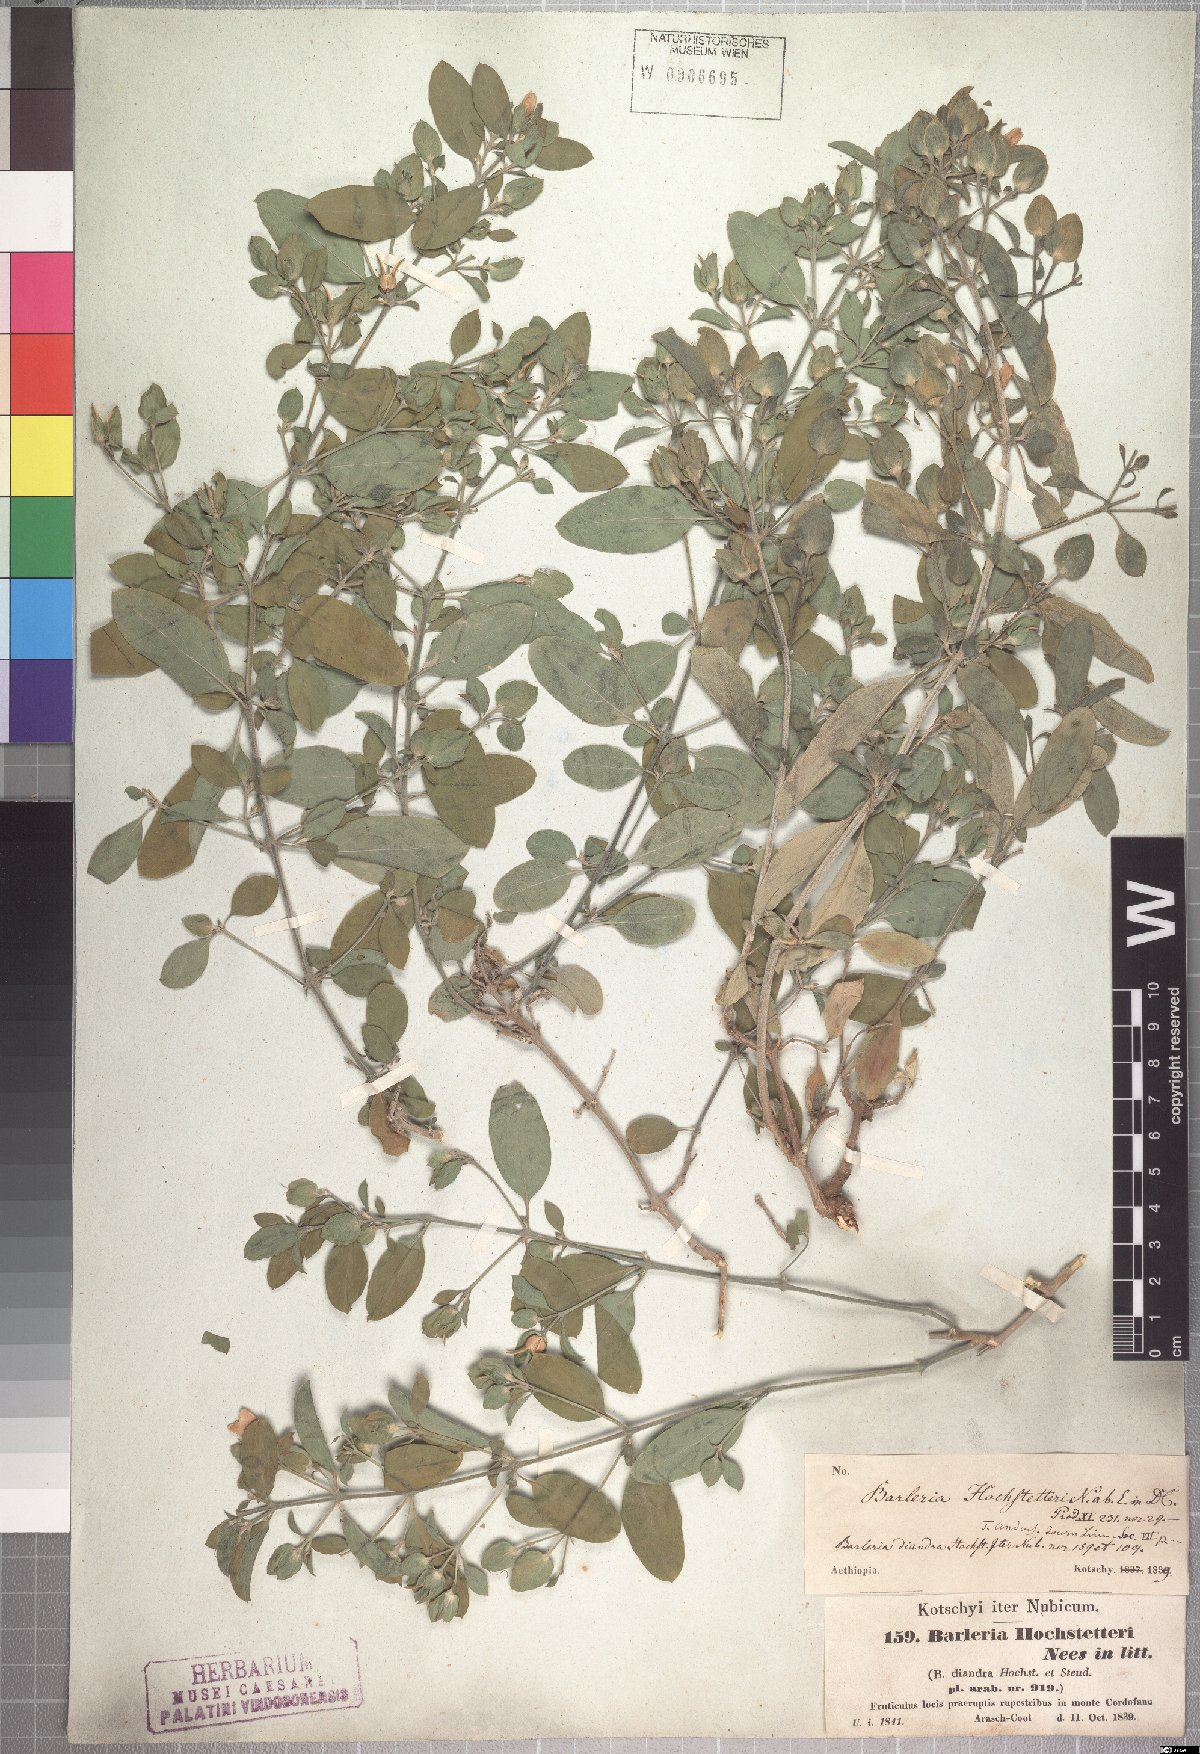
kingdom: Plantae
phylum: Tracheophyta
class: Magnoliopsida
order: Lamiales
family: Acanthaceae
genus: Barleria
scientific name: Barleria hochstetteri
